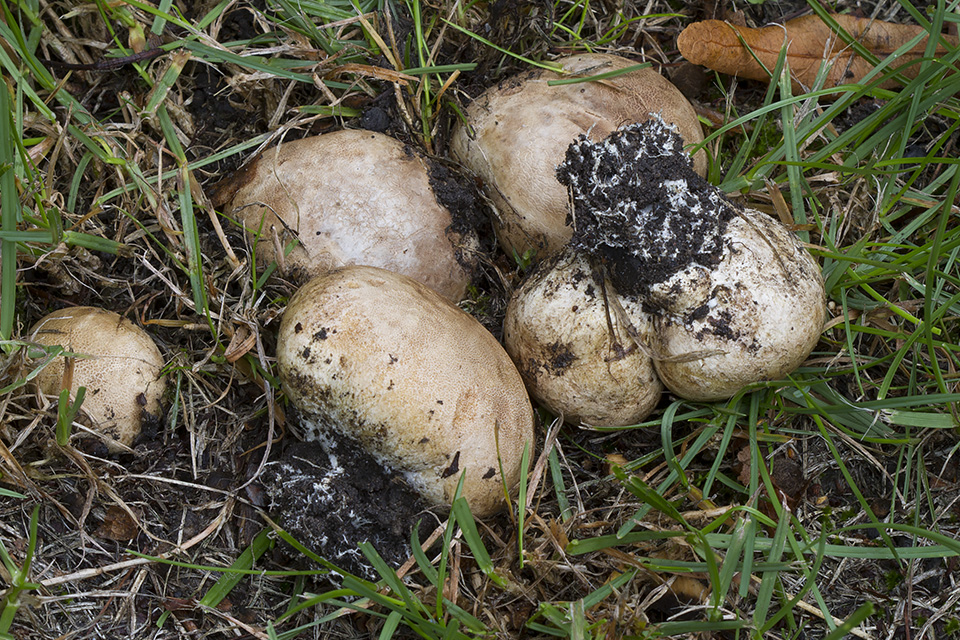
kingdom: Fungi
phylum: Basidiomycota
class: Agaricomycetes
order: Boletales
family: Sclerodermataceae
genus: Scleroderma
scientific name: Scleroderma bovista
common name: bovist-bruskbold
